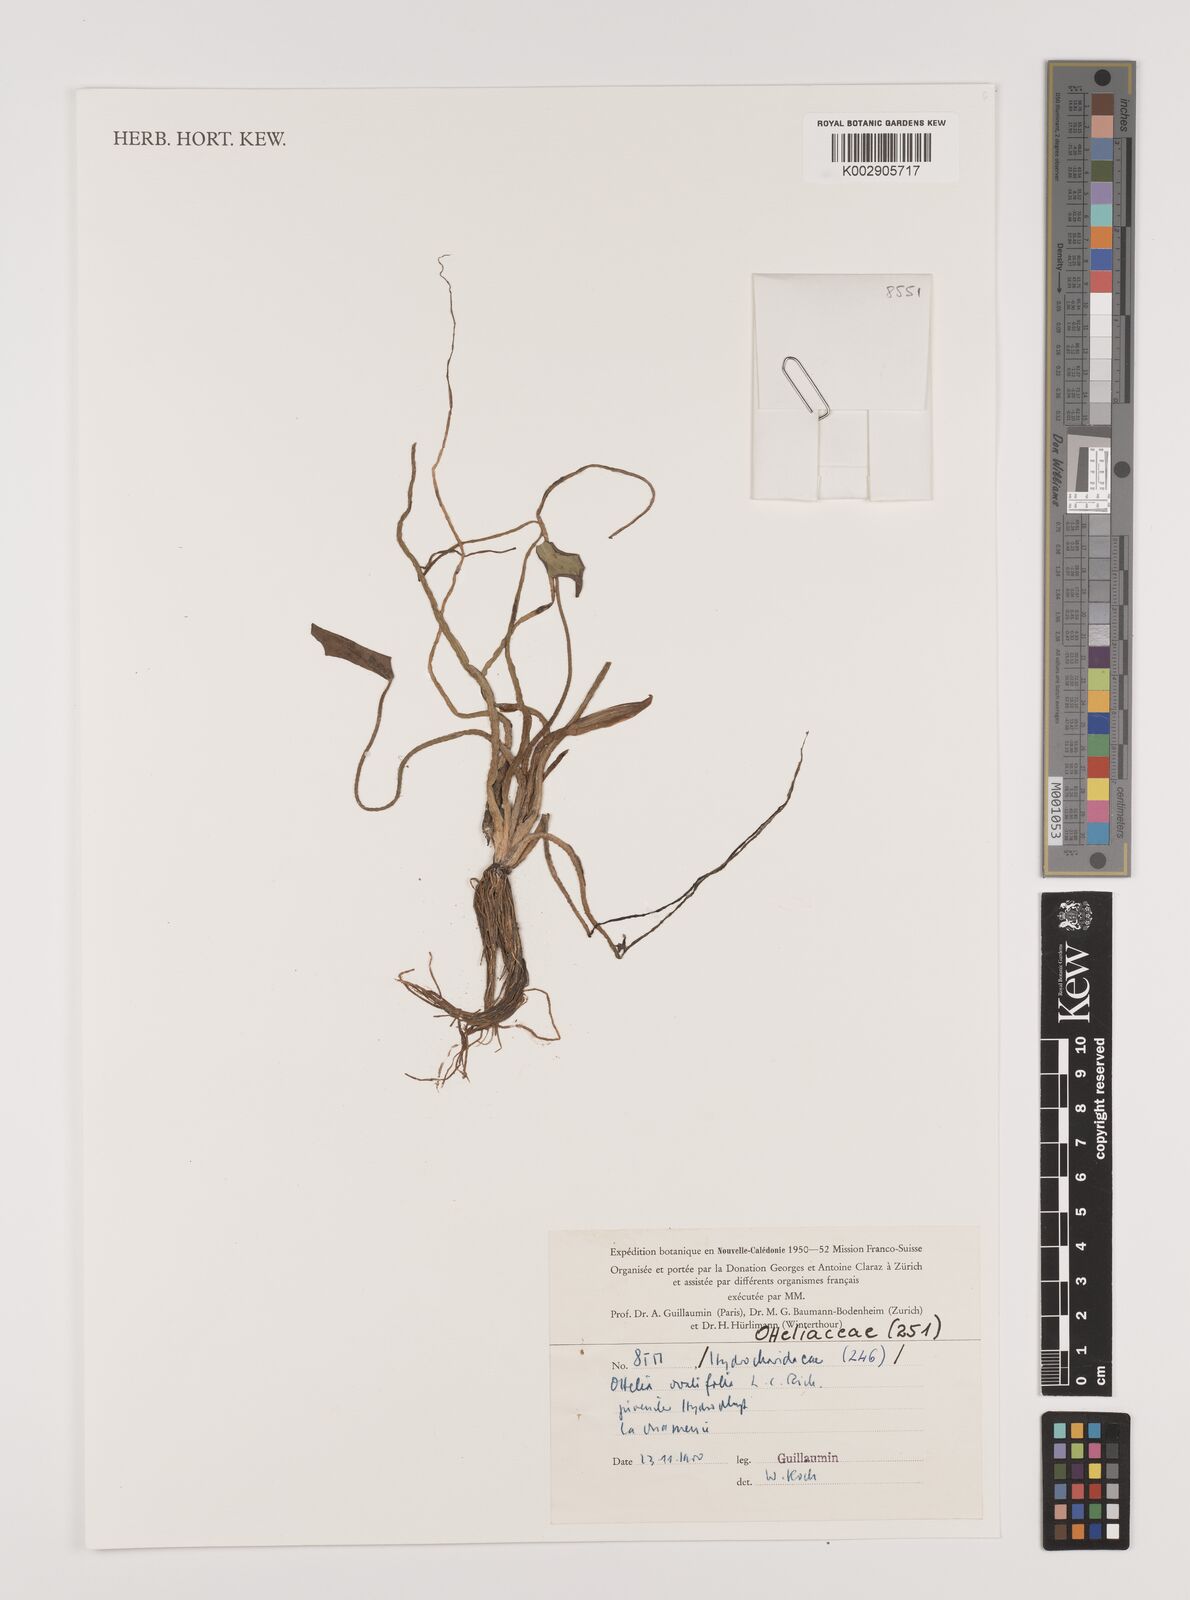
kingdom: Plantae
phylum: Tracheophyta
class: Liliopsida
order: Alismatales
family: Hydrocharitaceae
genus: Ottelia
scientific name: Ottelia ovalifolia
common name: Swamp-lily
